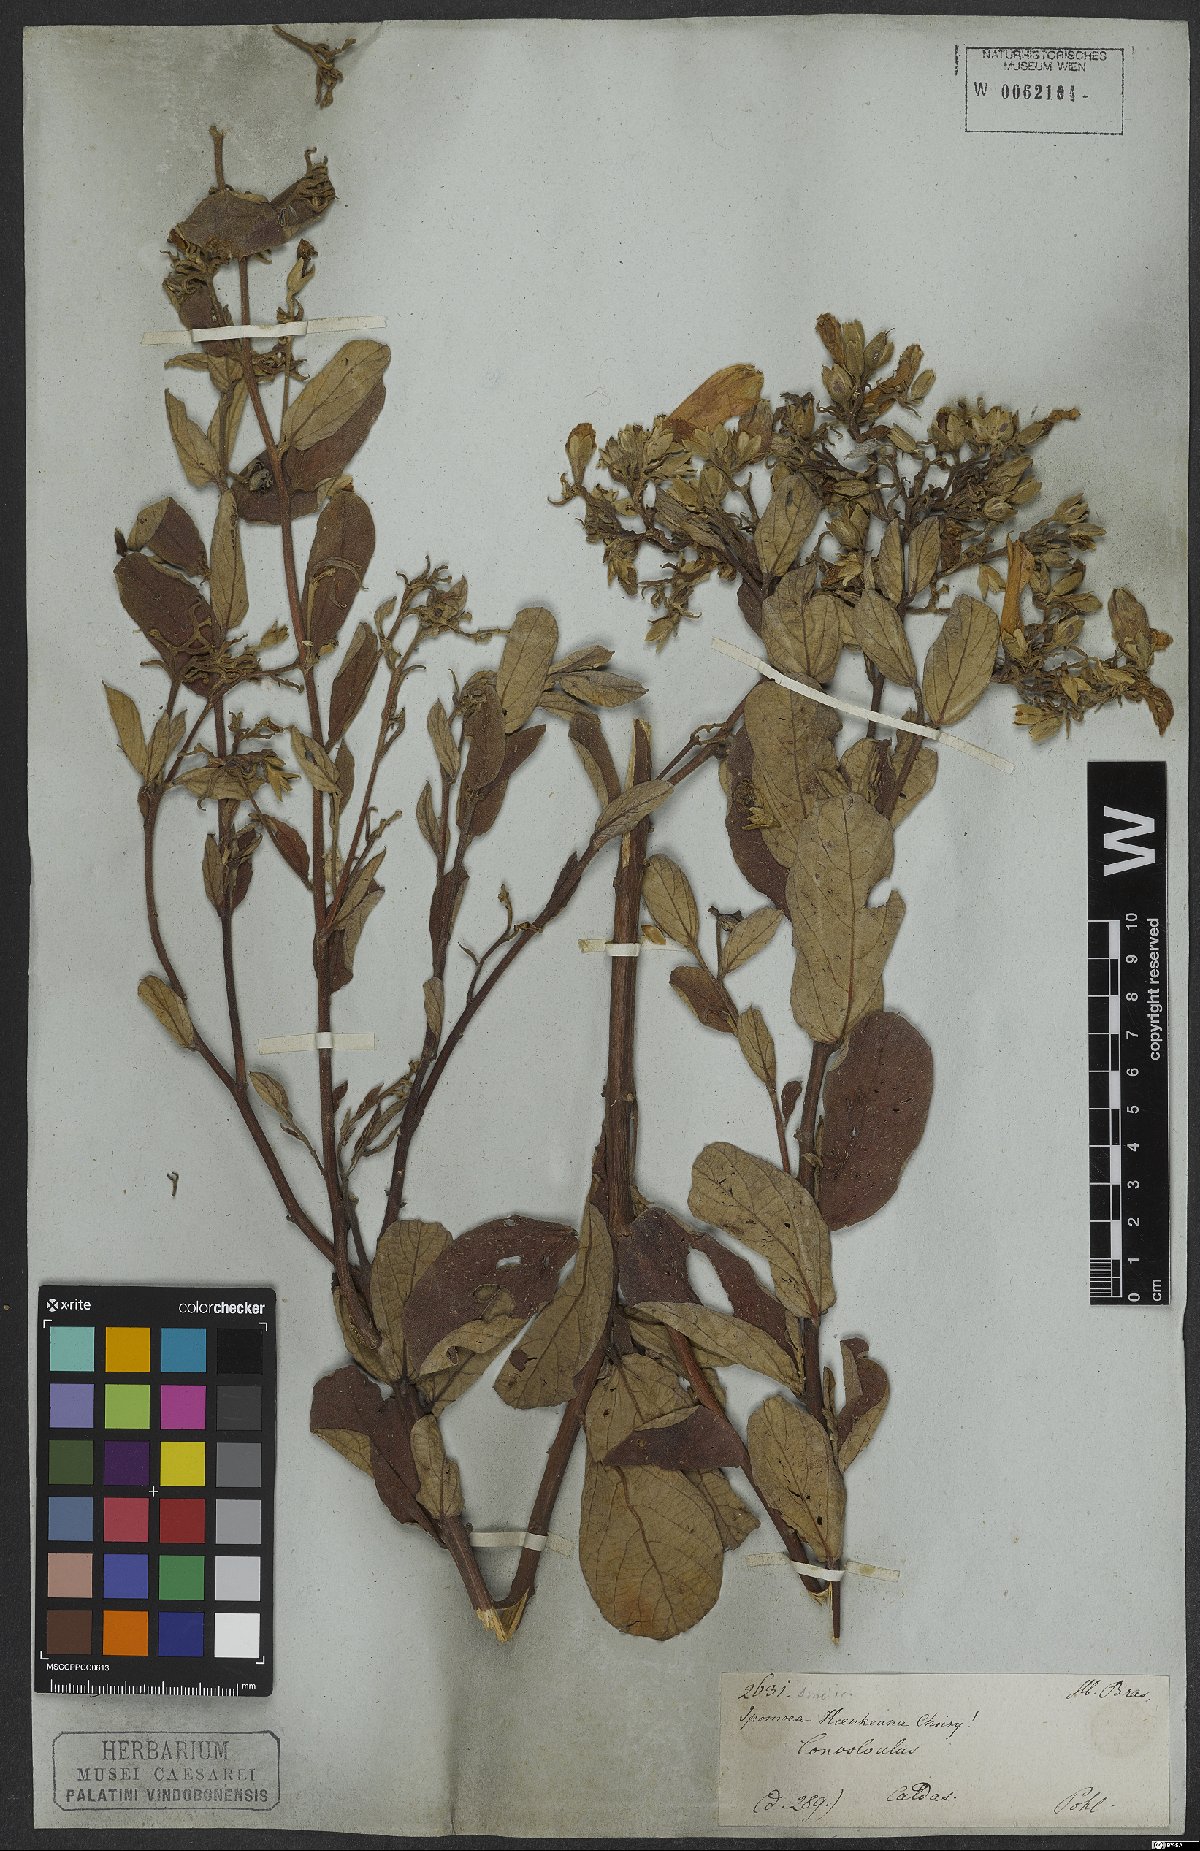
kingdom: Plantae
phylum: Tracheophyta
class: Magnoliopsida
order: Solanales
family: Convolvulaceae
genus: Ipomoea
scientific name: Ipomoea haenkeana
